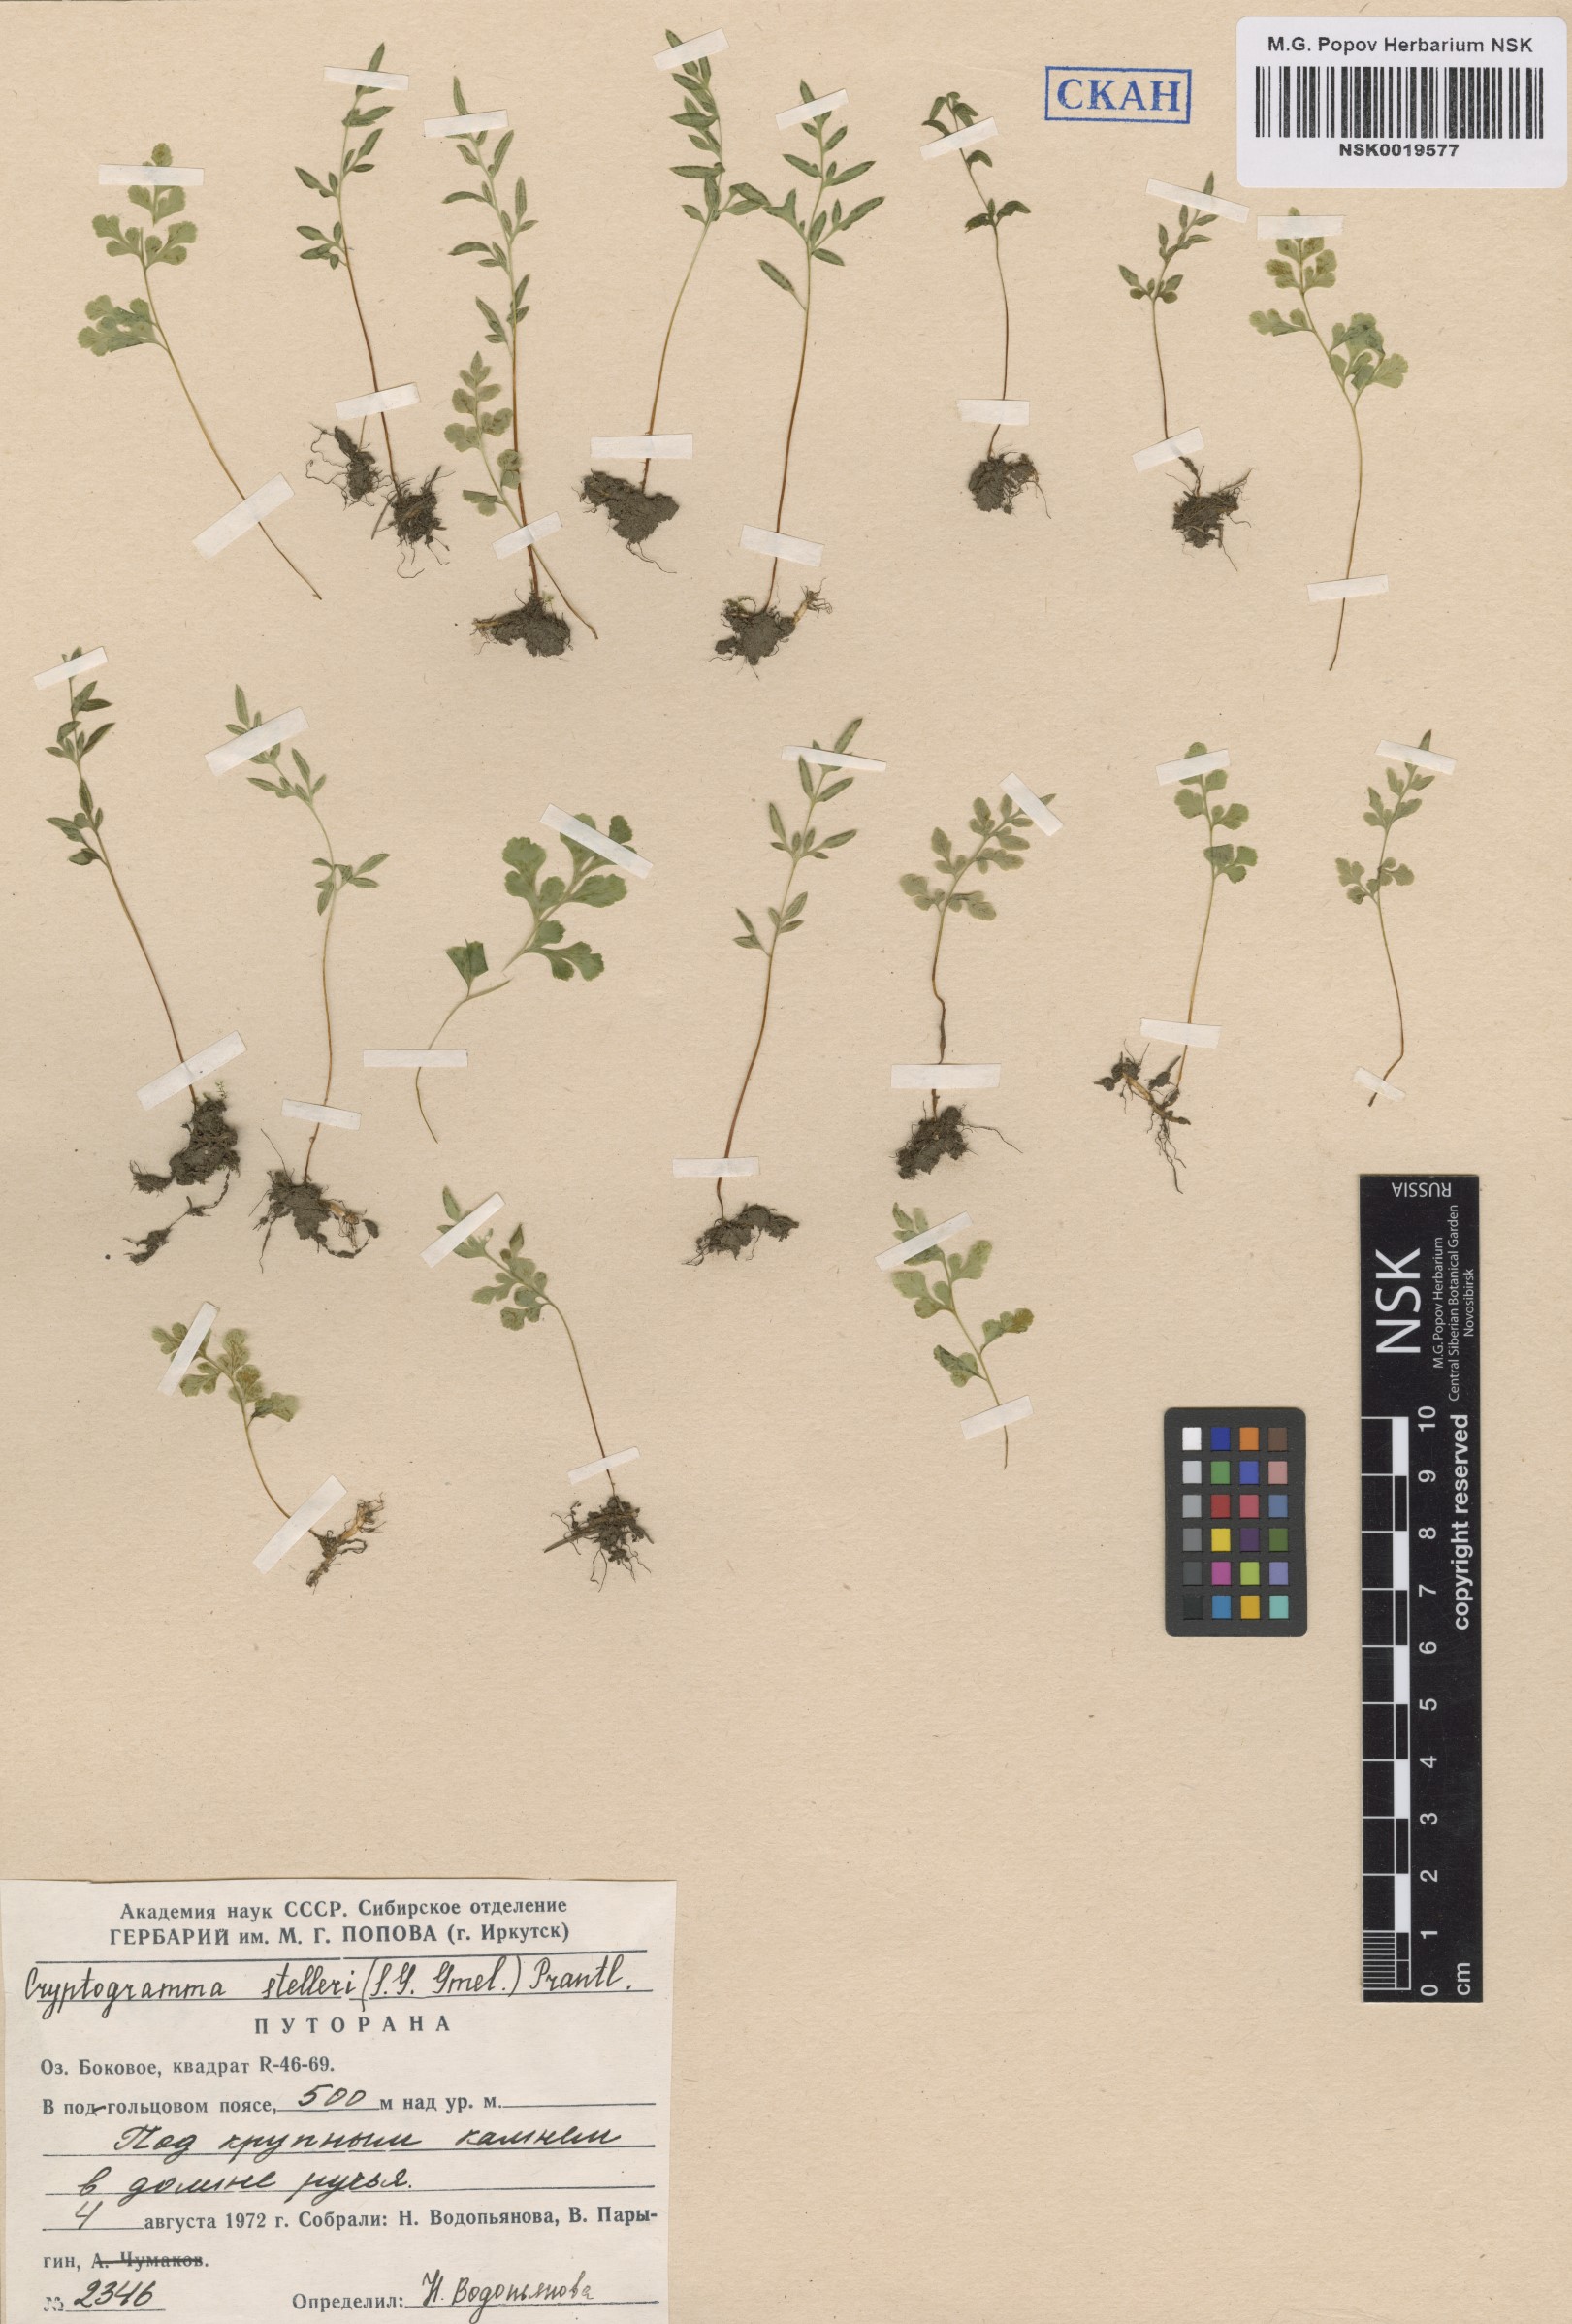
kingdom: Plantae
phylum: Tracheophyta
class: Polypodiopsida
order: Polypodiales
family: Pteridaceae
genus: Cryptogramma
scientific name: Cryptogramma stelleri
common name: Cliff-brake
